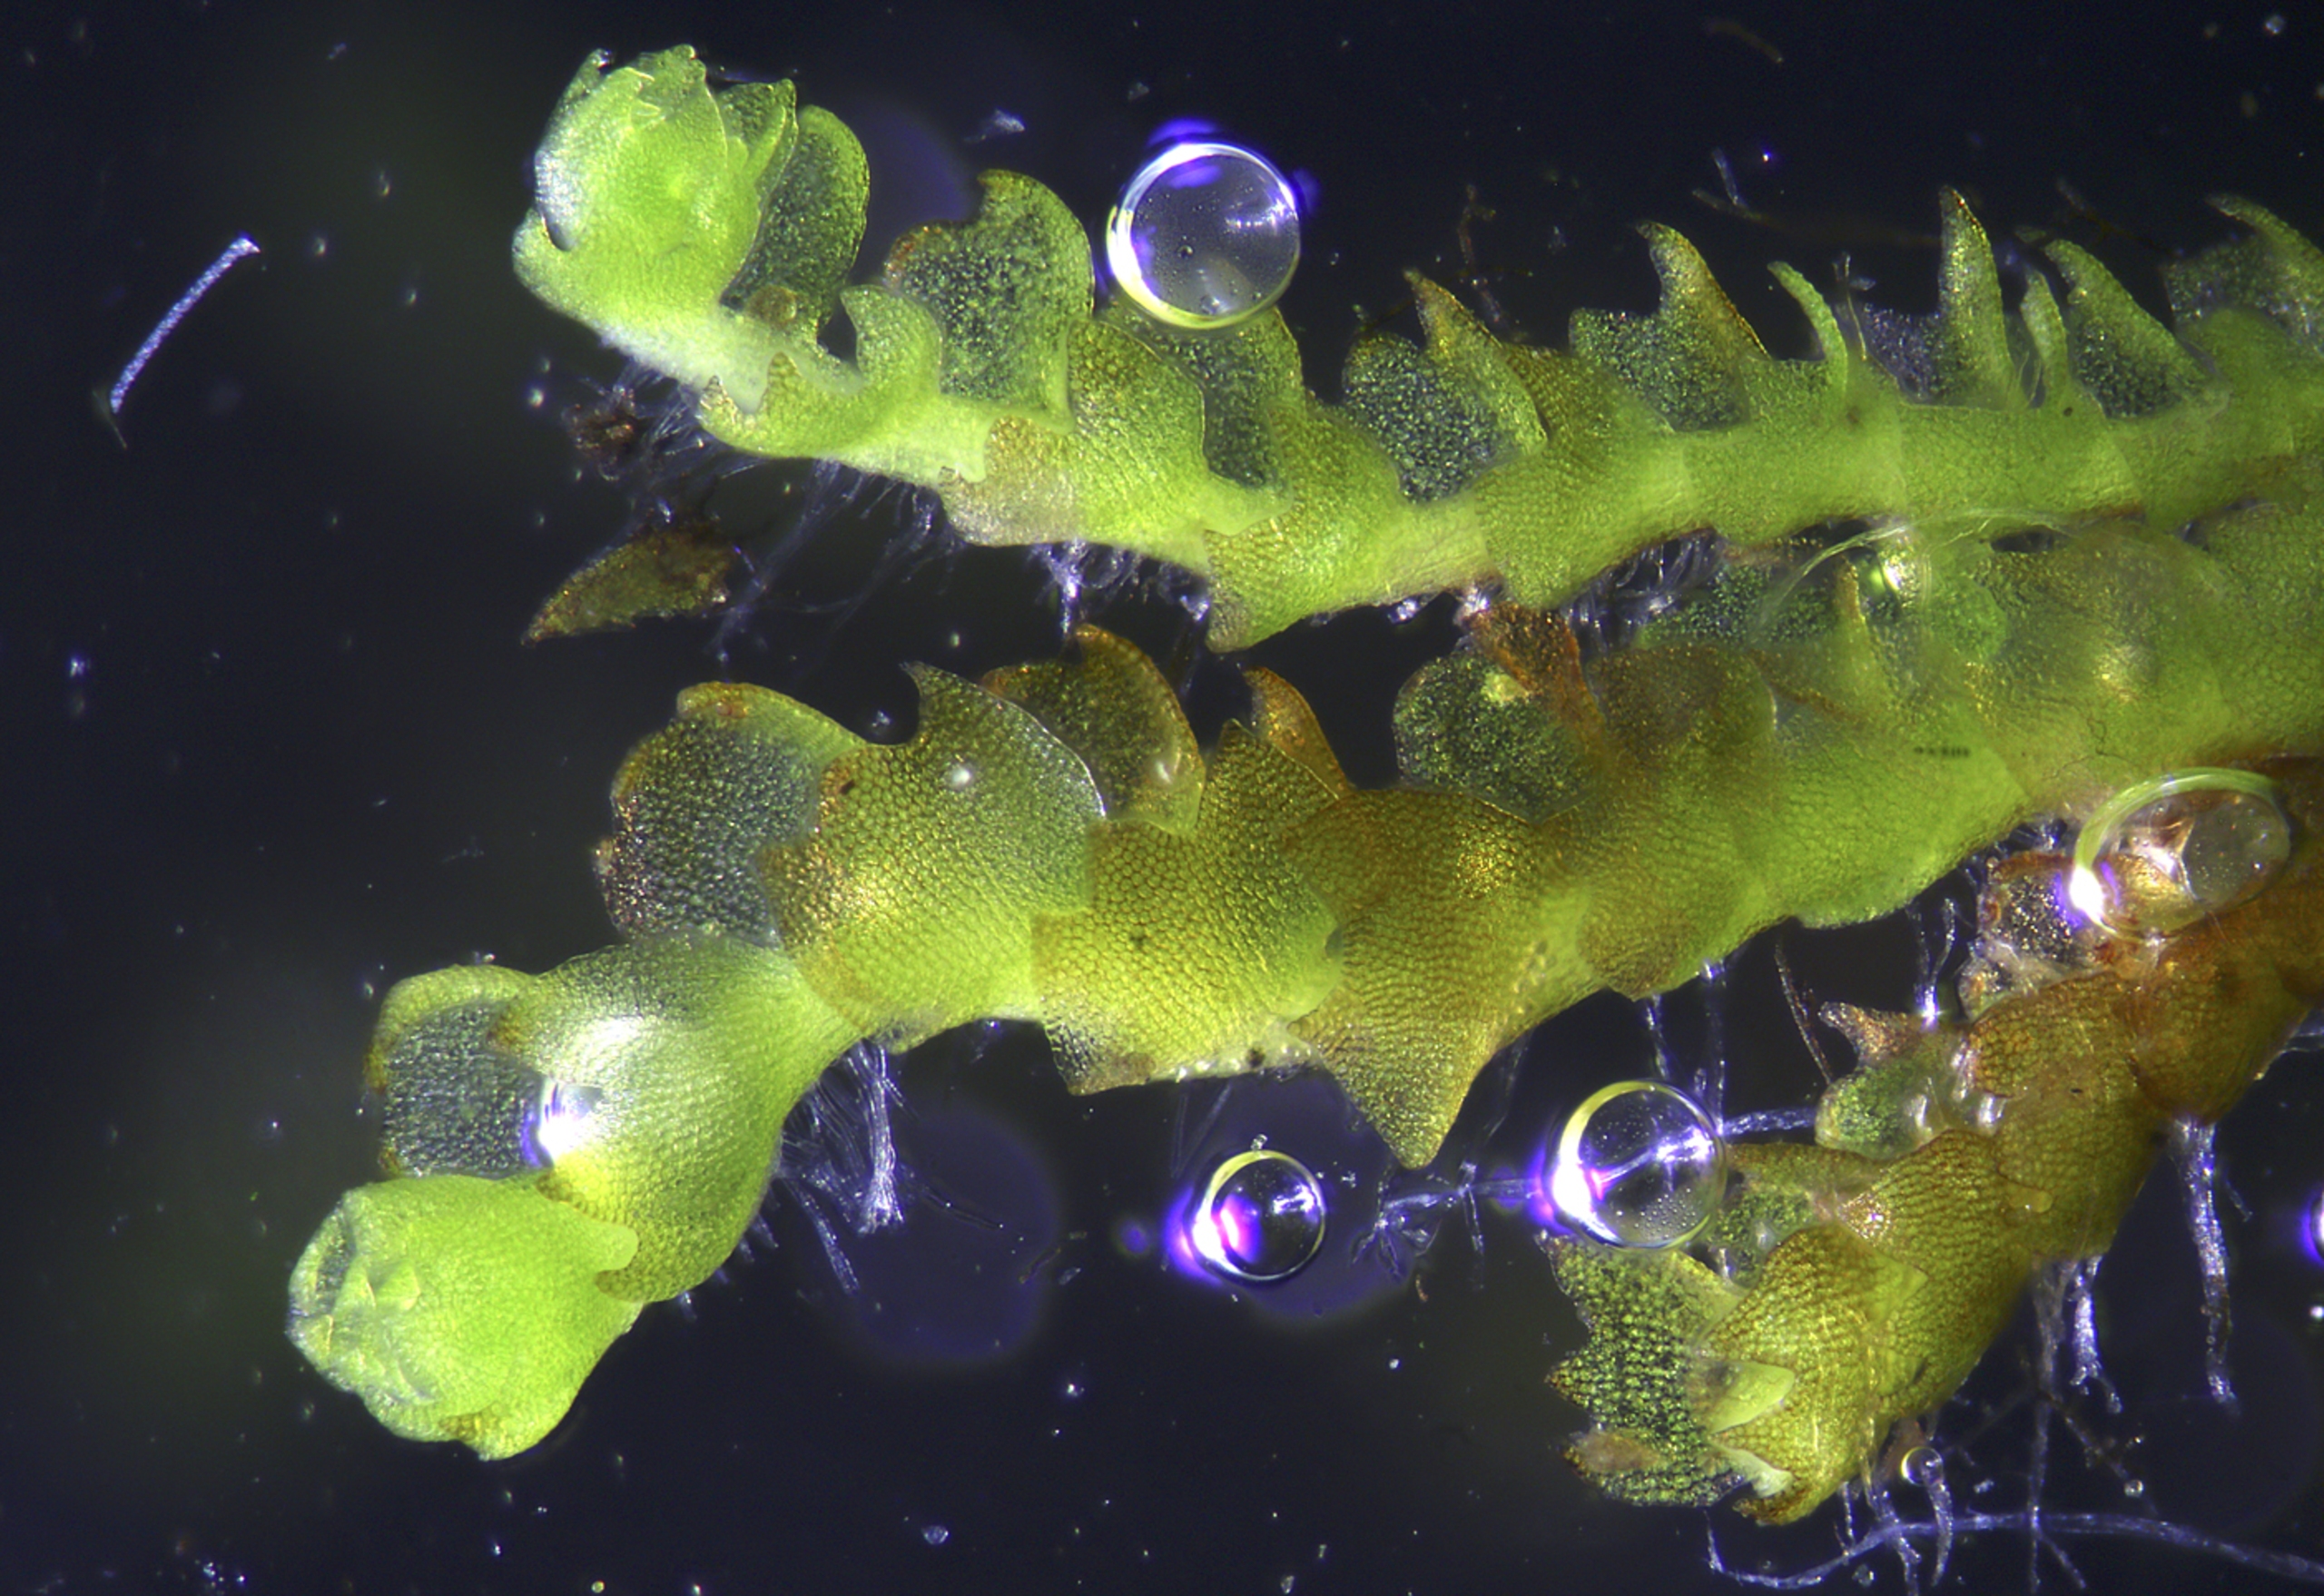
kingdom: Plantae
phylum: Marchantiophyta
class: Jungermanniopsida
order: Jungermanniales
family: Anastrophyllaceae
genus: Neoorthocaulis
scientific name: Neoorthocaulis attenuatus
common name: Tynd flerfligmos
